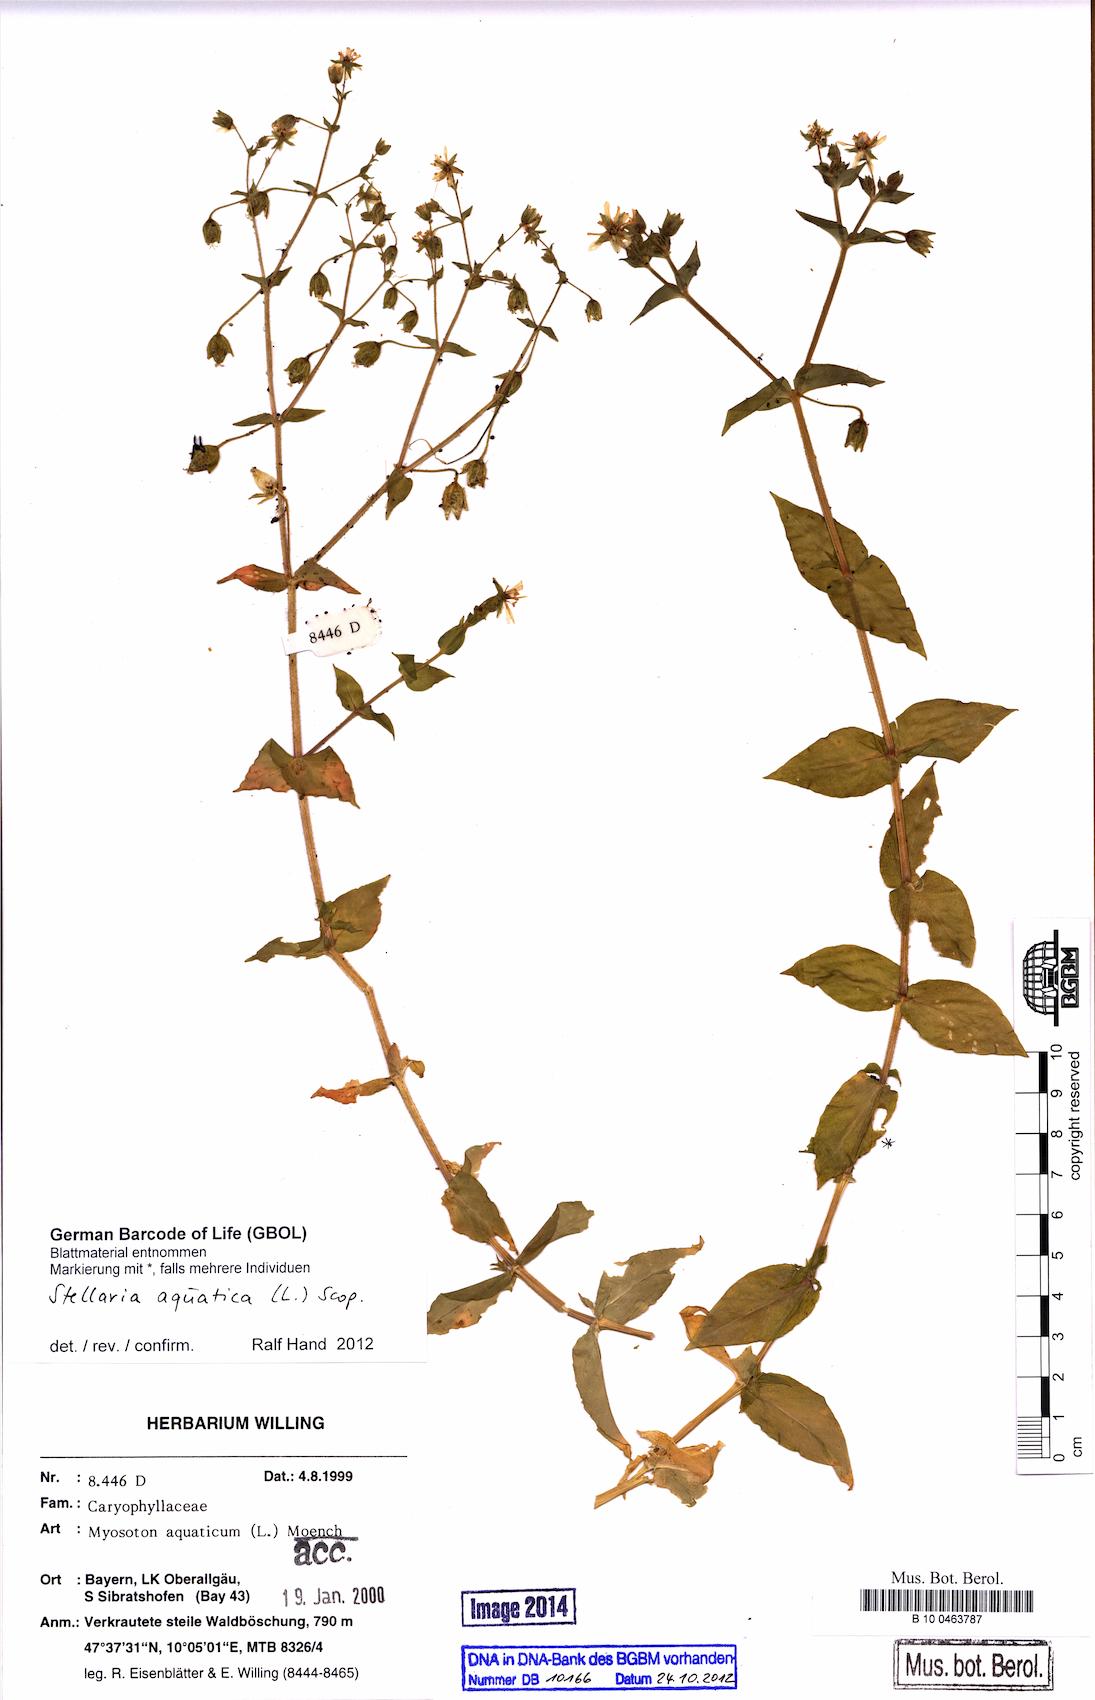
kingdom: Plantae
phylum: Tracheophyta
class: Magnoliopsida
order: Caryophyllales
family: Caryophyllaceae
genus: Stellaria
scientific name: Stellaria aquatica
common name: Water chickweed
